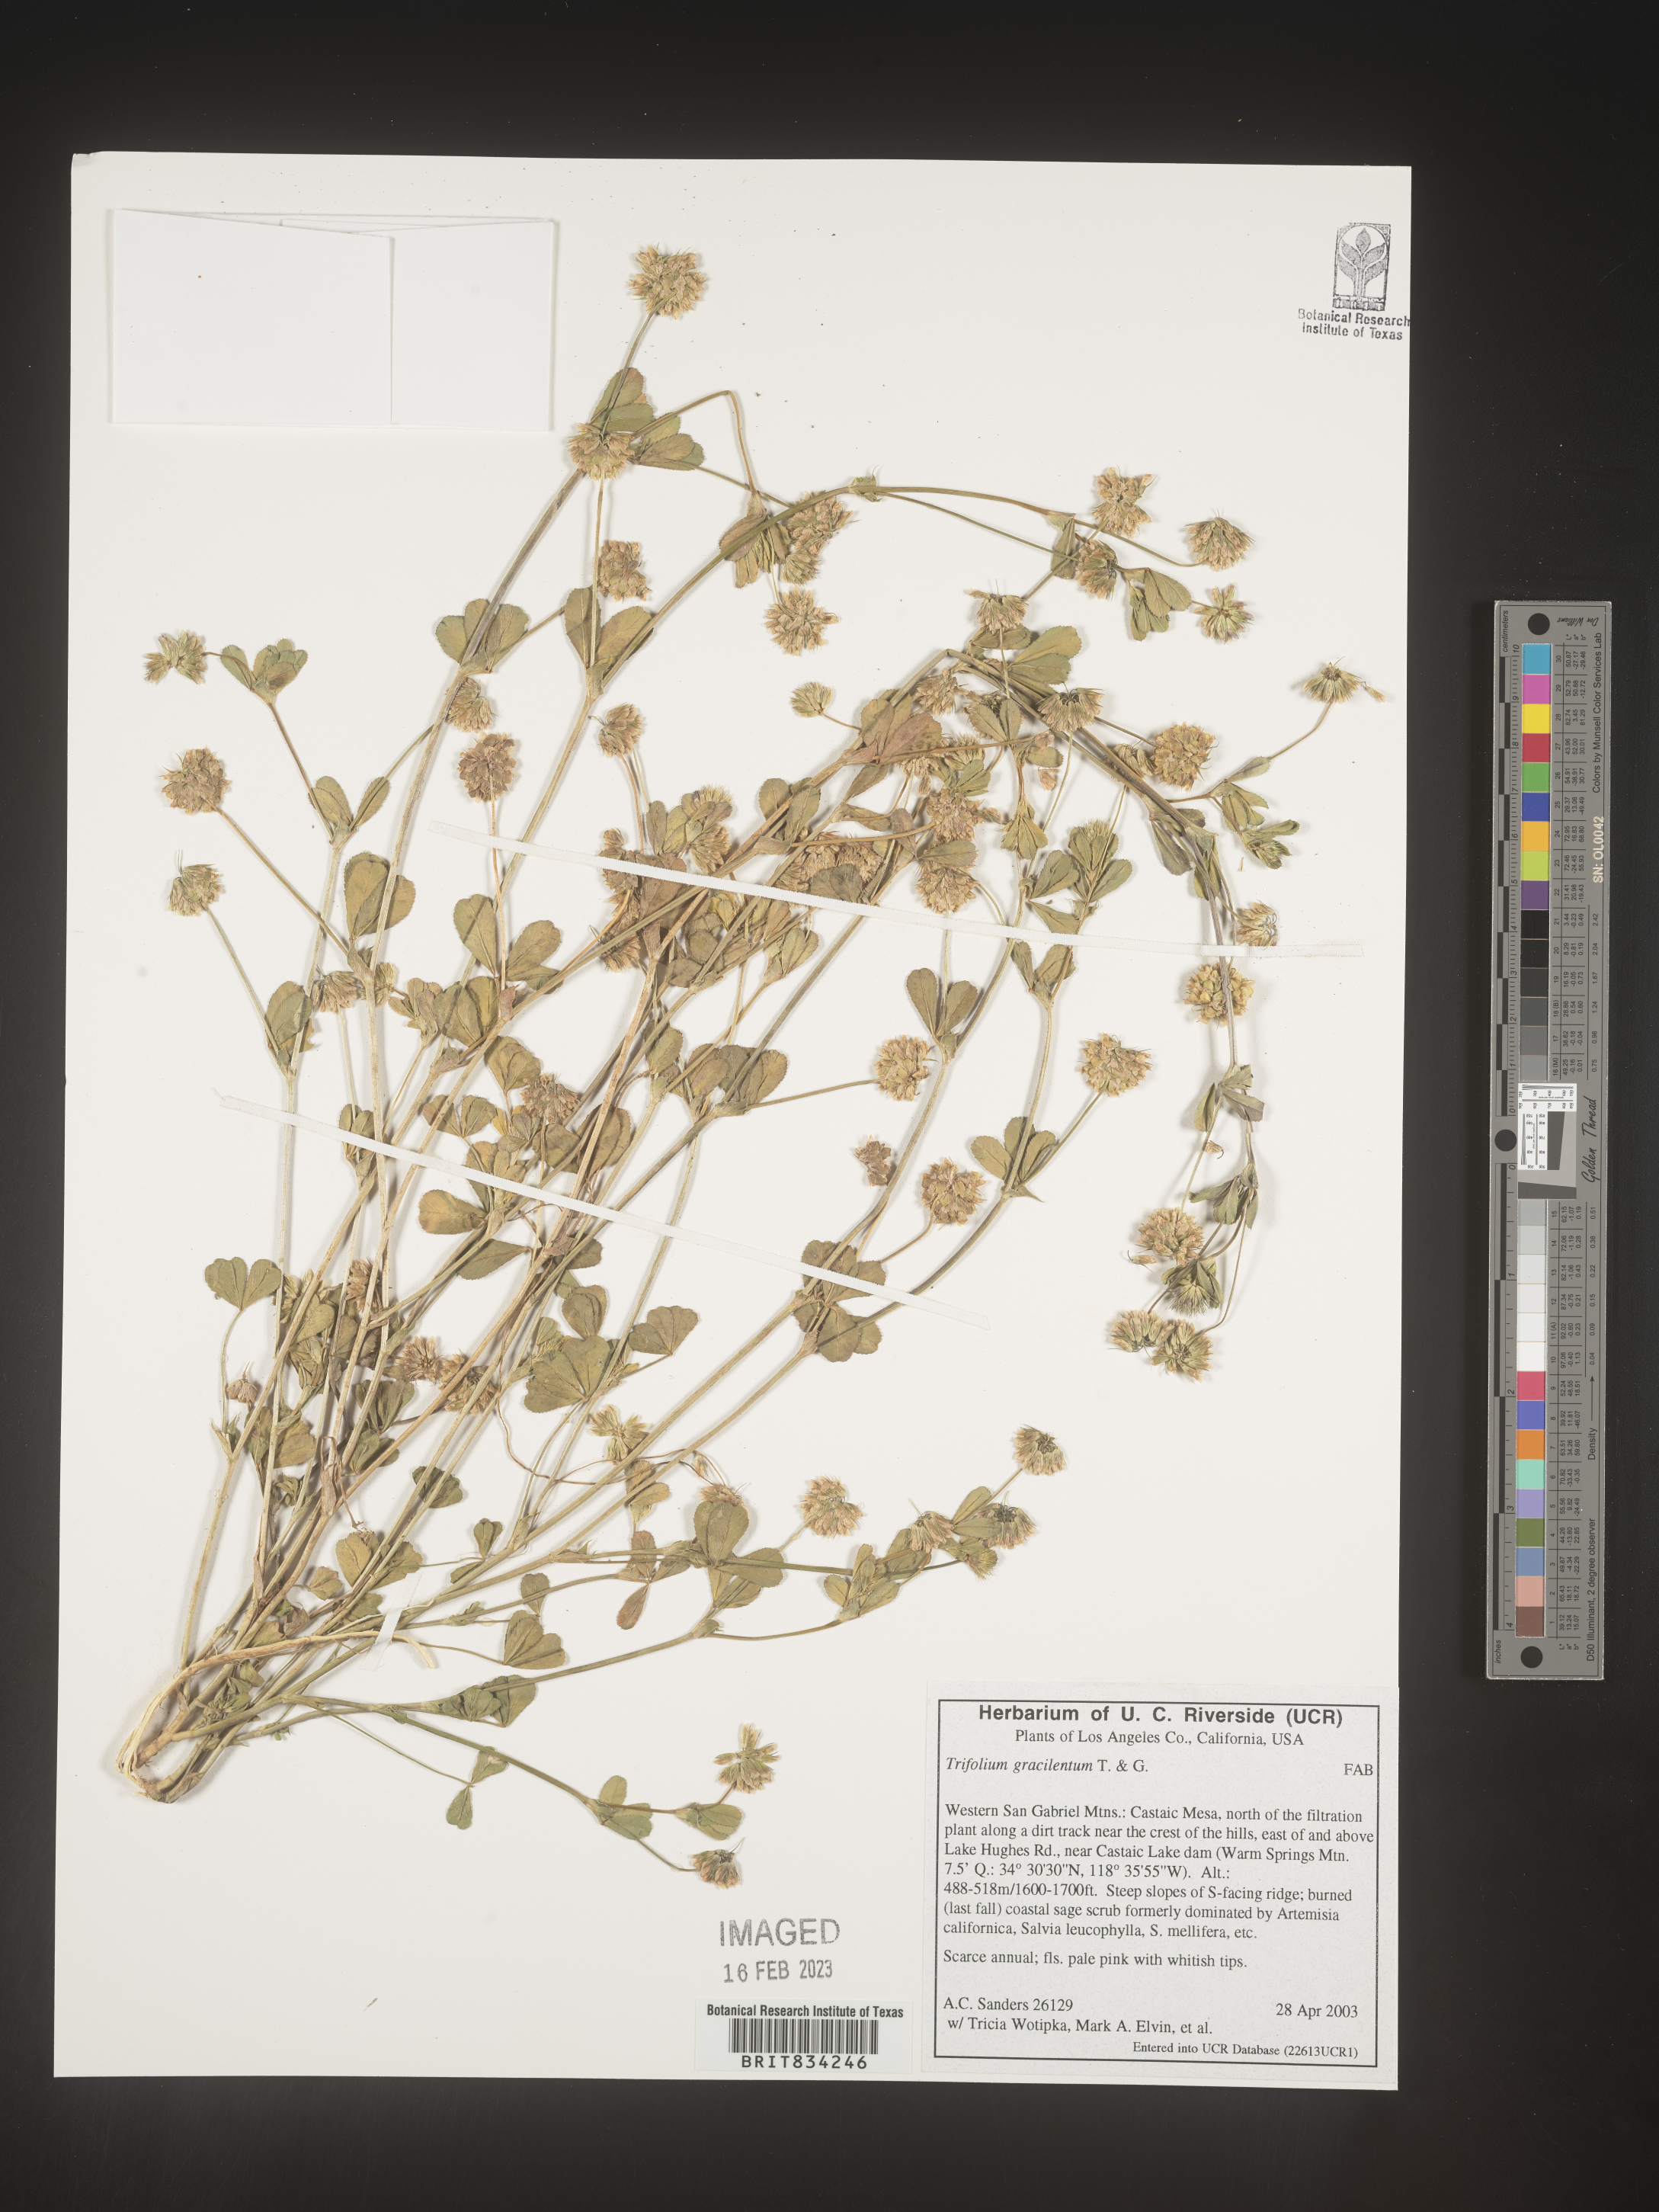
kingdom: Plantae
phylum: Tracheophyta
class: Magnoliopsida
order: Fabales
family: Fabaceae
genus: Trifolium
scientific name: Trifolium
